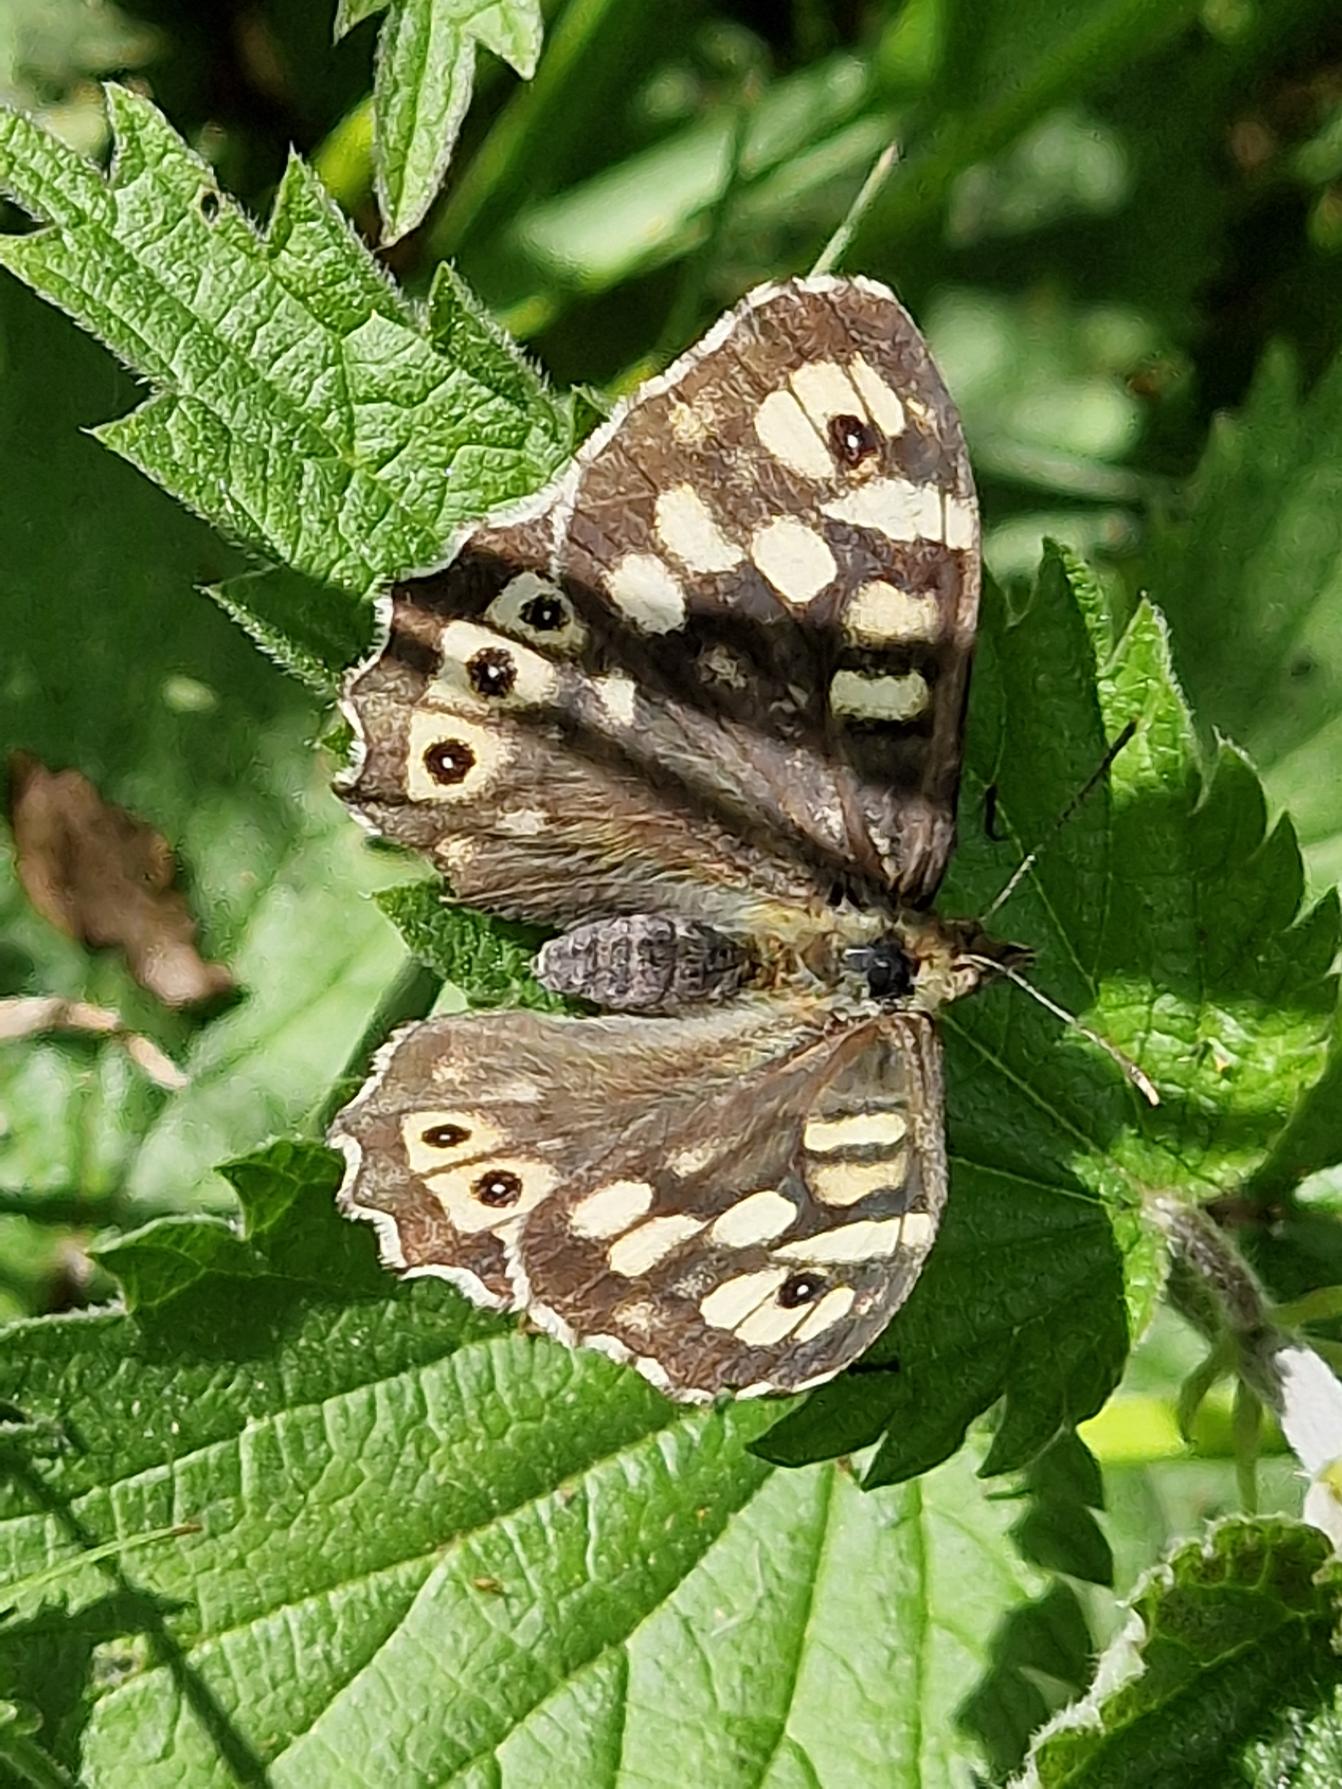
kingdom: Animalia
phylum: Arthropoda
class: Insecta
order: Lepidoptera
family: Nymphalidae
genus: Pararge
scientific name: Pararge aegeria
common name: Skovrandøje
